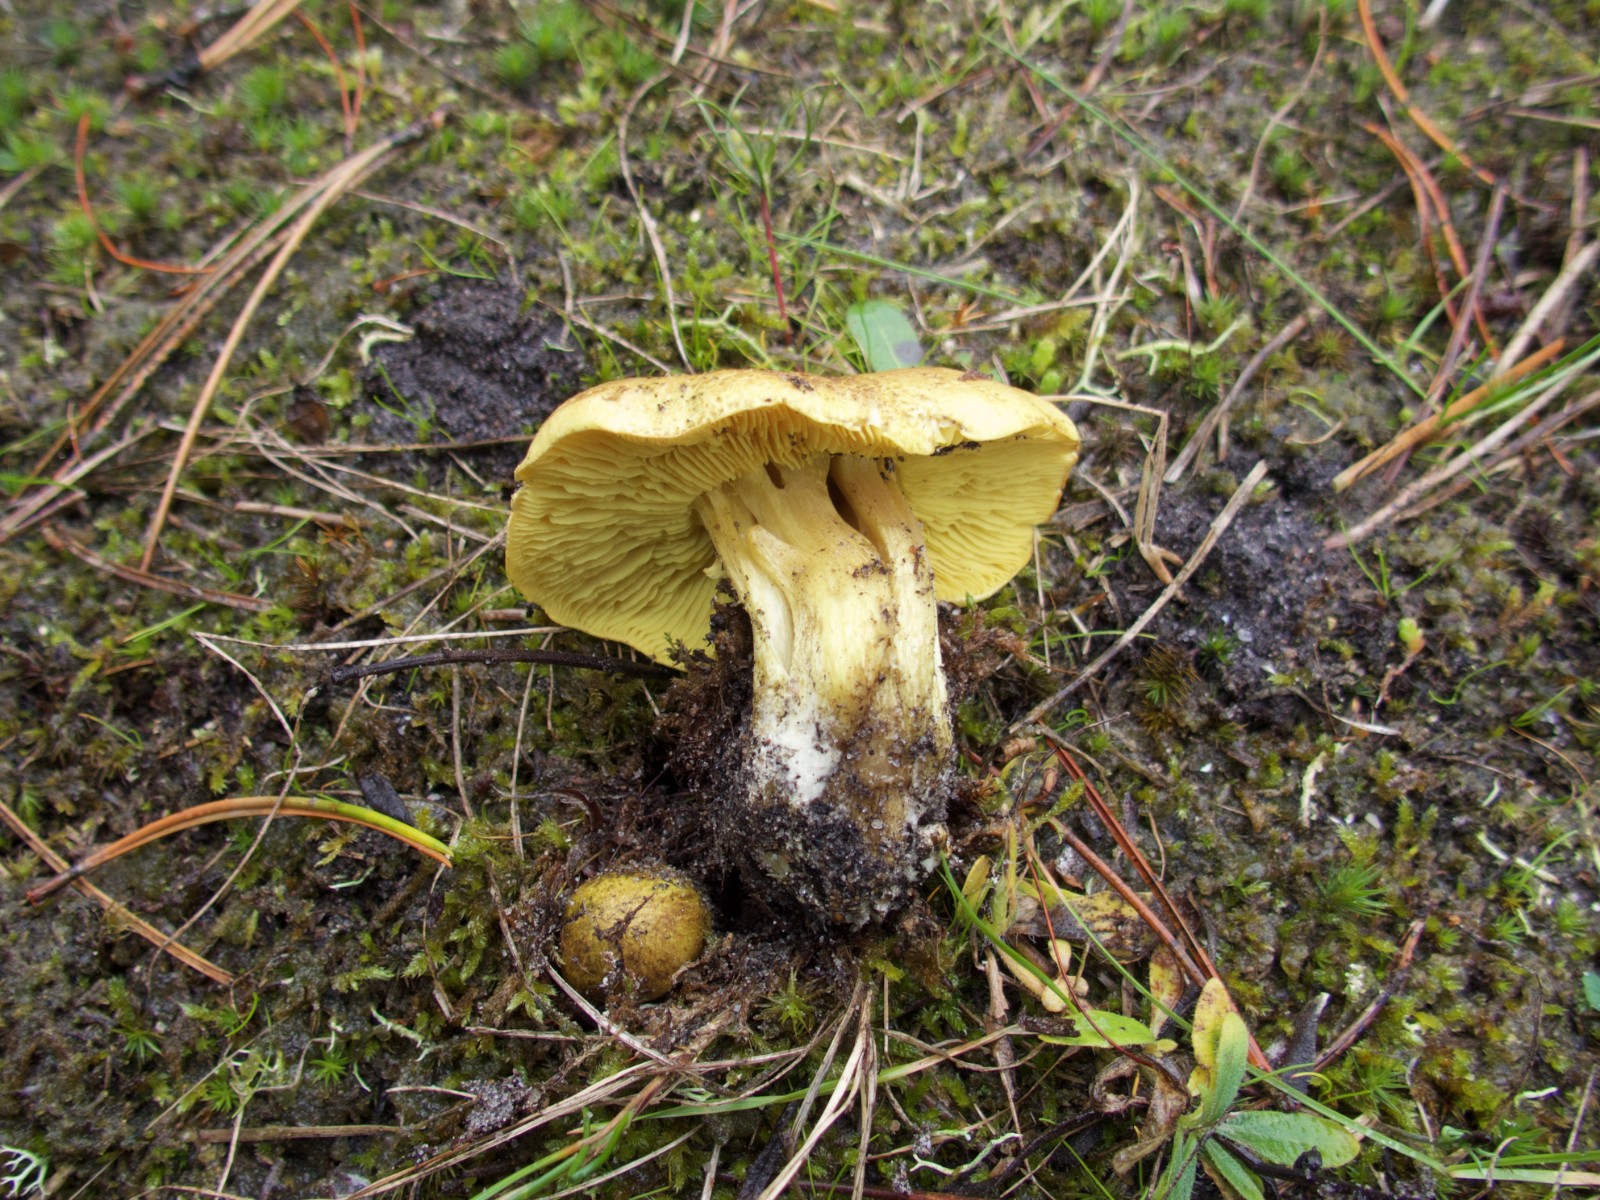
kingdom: Fungi
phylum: Basidiomycota
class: Agaricomycetes
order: Agaricales
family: Tricholomataceae
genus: Tricholoma
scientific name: Tricholoma equestre
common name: ægte ridderhat
